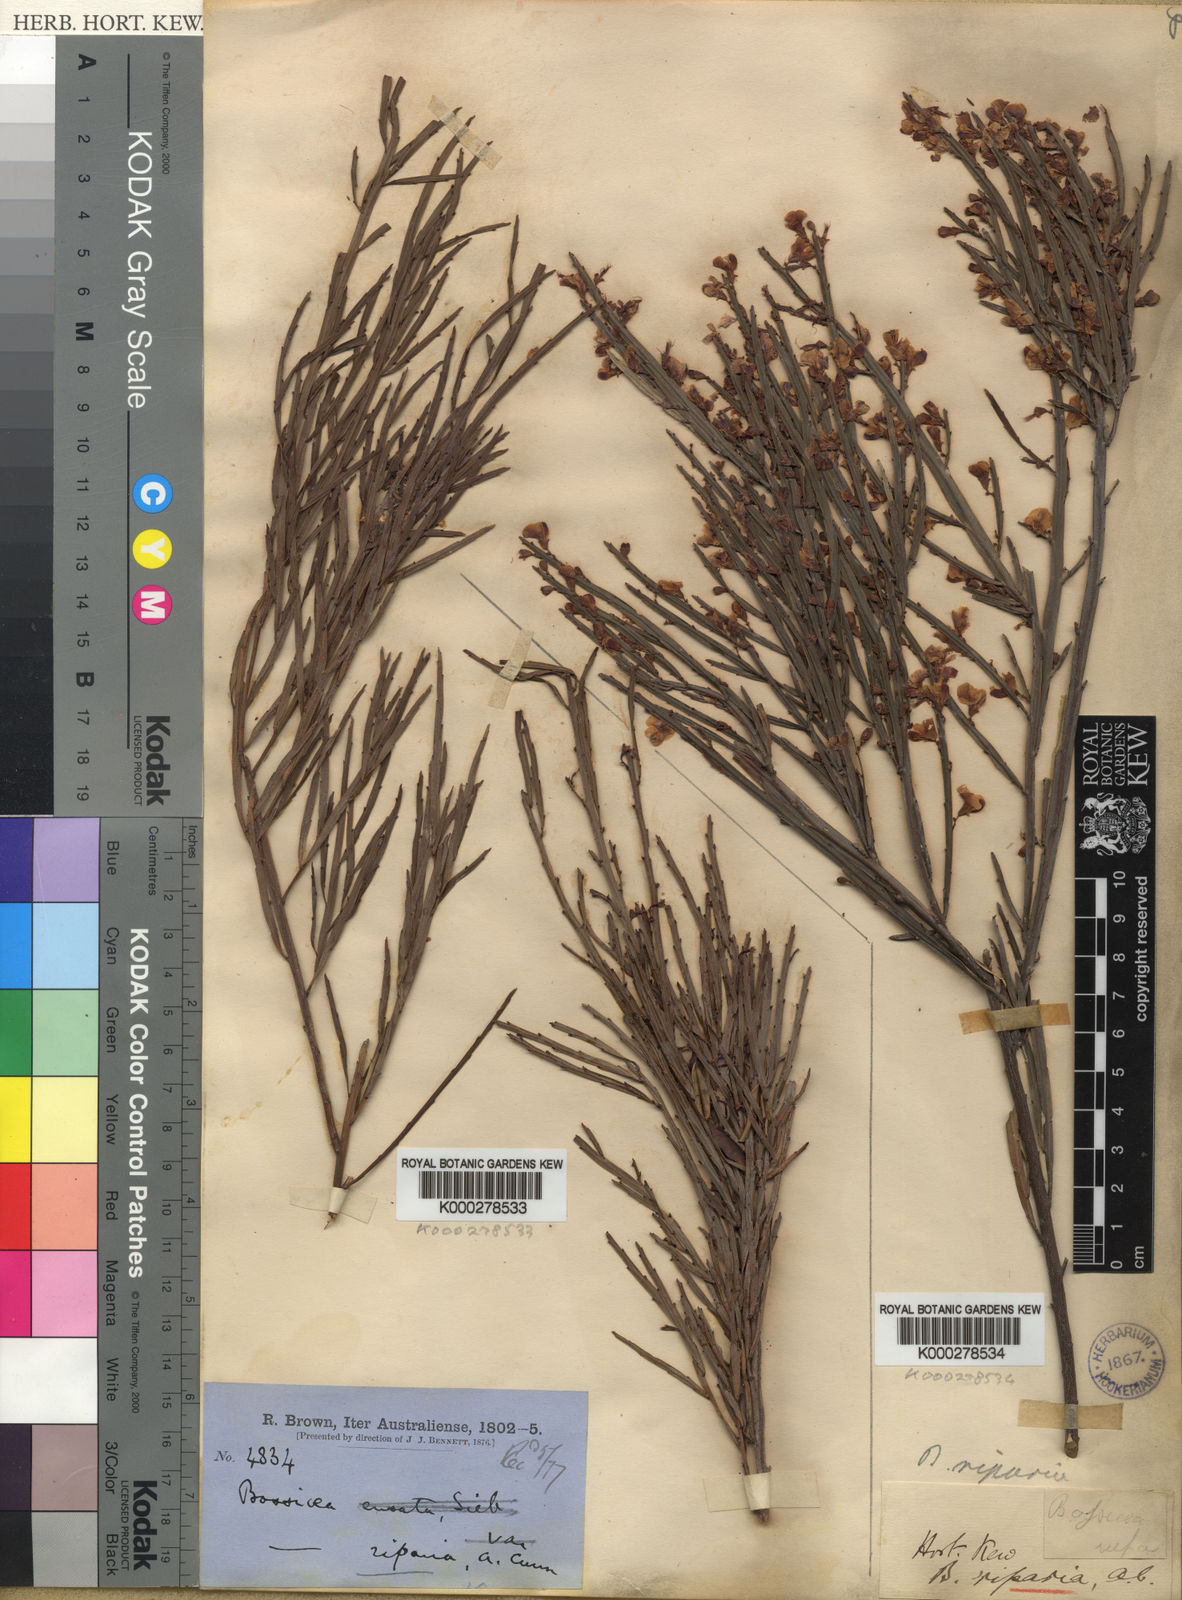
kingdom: Plantae
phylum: Tracheophyta
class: Magnoliopsida
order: Fabales
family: Fabaceae
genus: Bossiaea
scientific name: Bossiaea riparia
